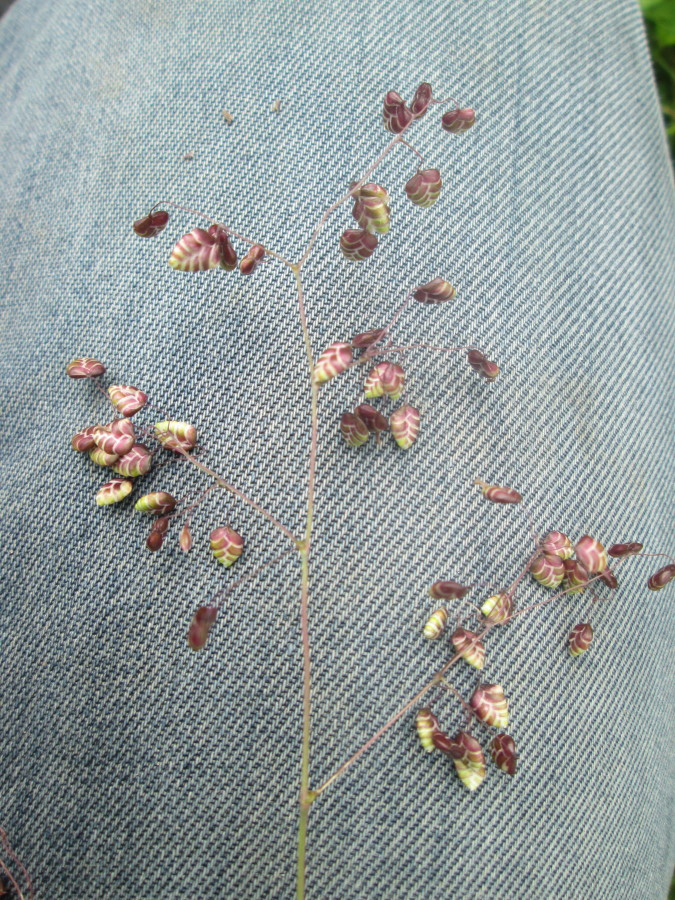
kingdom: Plantae
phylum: Tracheophyta
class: Liliopsida
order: Poales
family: Poaceae
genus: Briza
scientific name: Briza media
